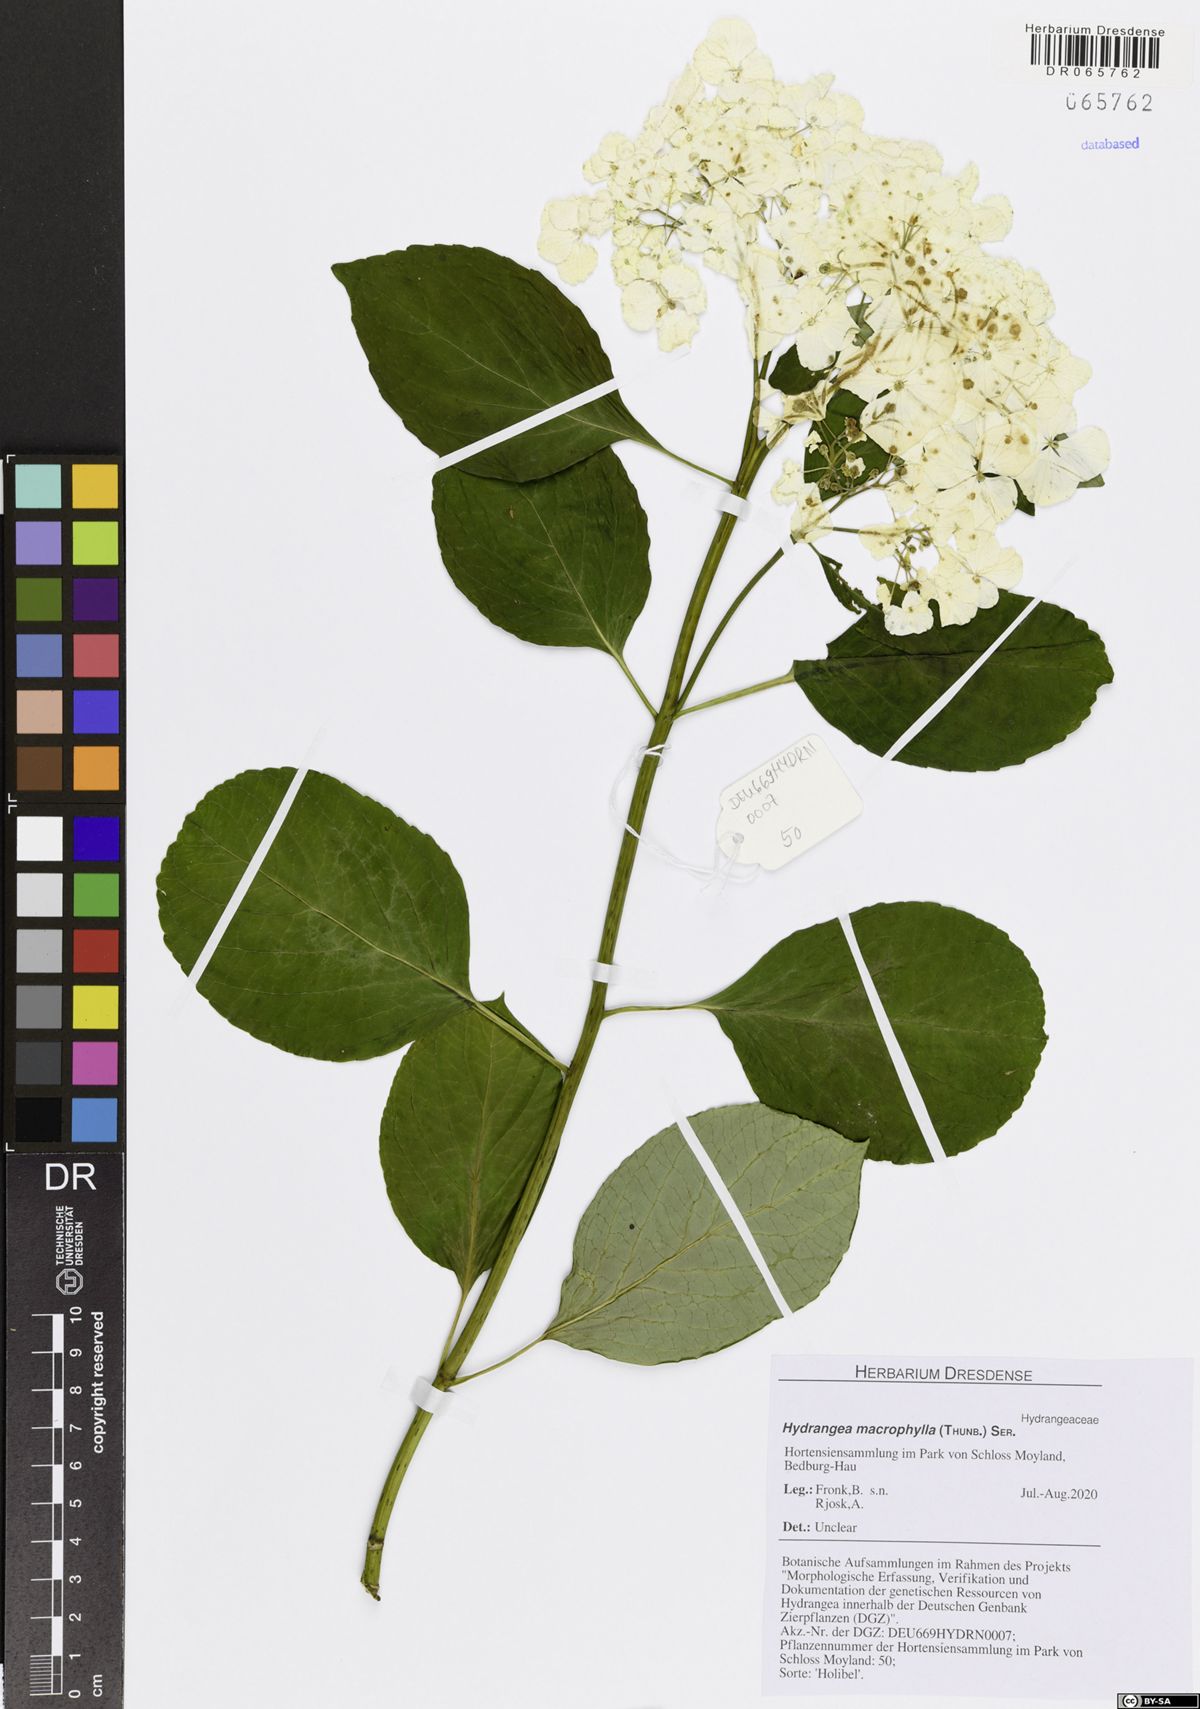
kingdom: Plantae
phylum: Tracheophyta
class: Magnoliopsida
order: Cornales
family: Hydrangeaceae
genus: Hydrangea
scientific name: Hydrangea macrophylla
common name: Hydrangea
